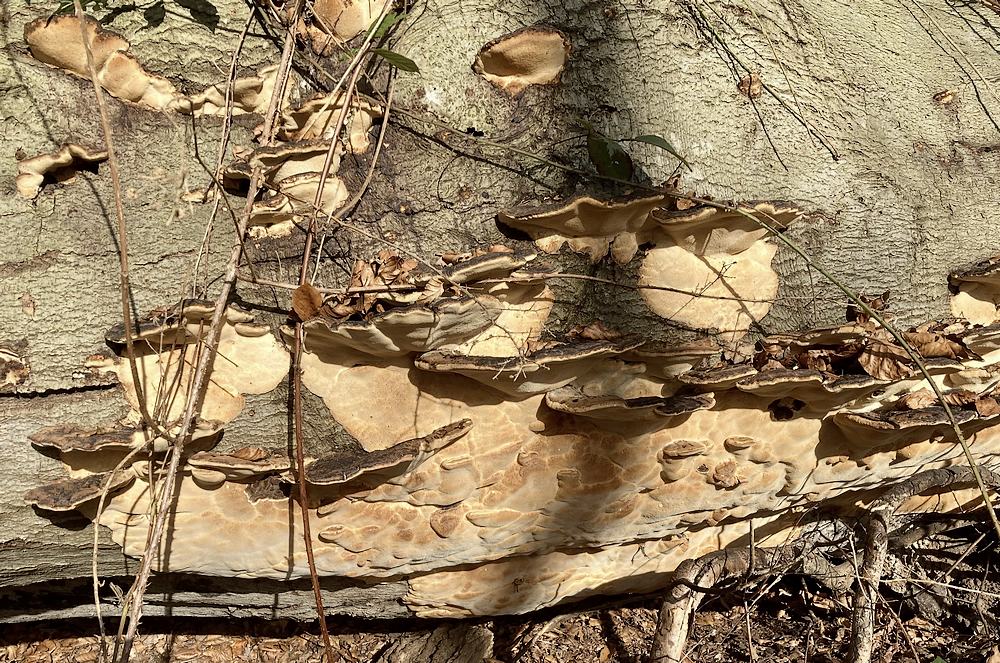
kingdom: Fungi
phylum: Basidiomycota
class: Agaricomycetes
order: Polyporales
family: Ischnodermataceae
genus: Ischnoderma
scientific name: Ischnoderma resinosum
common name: løv-tjæreporesvamp
